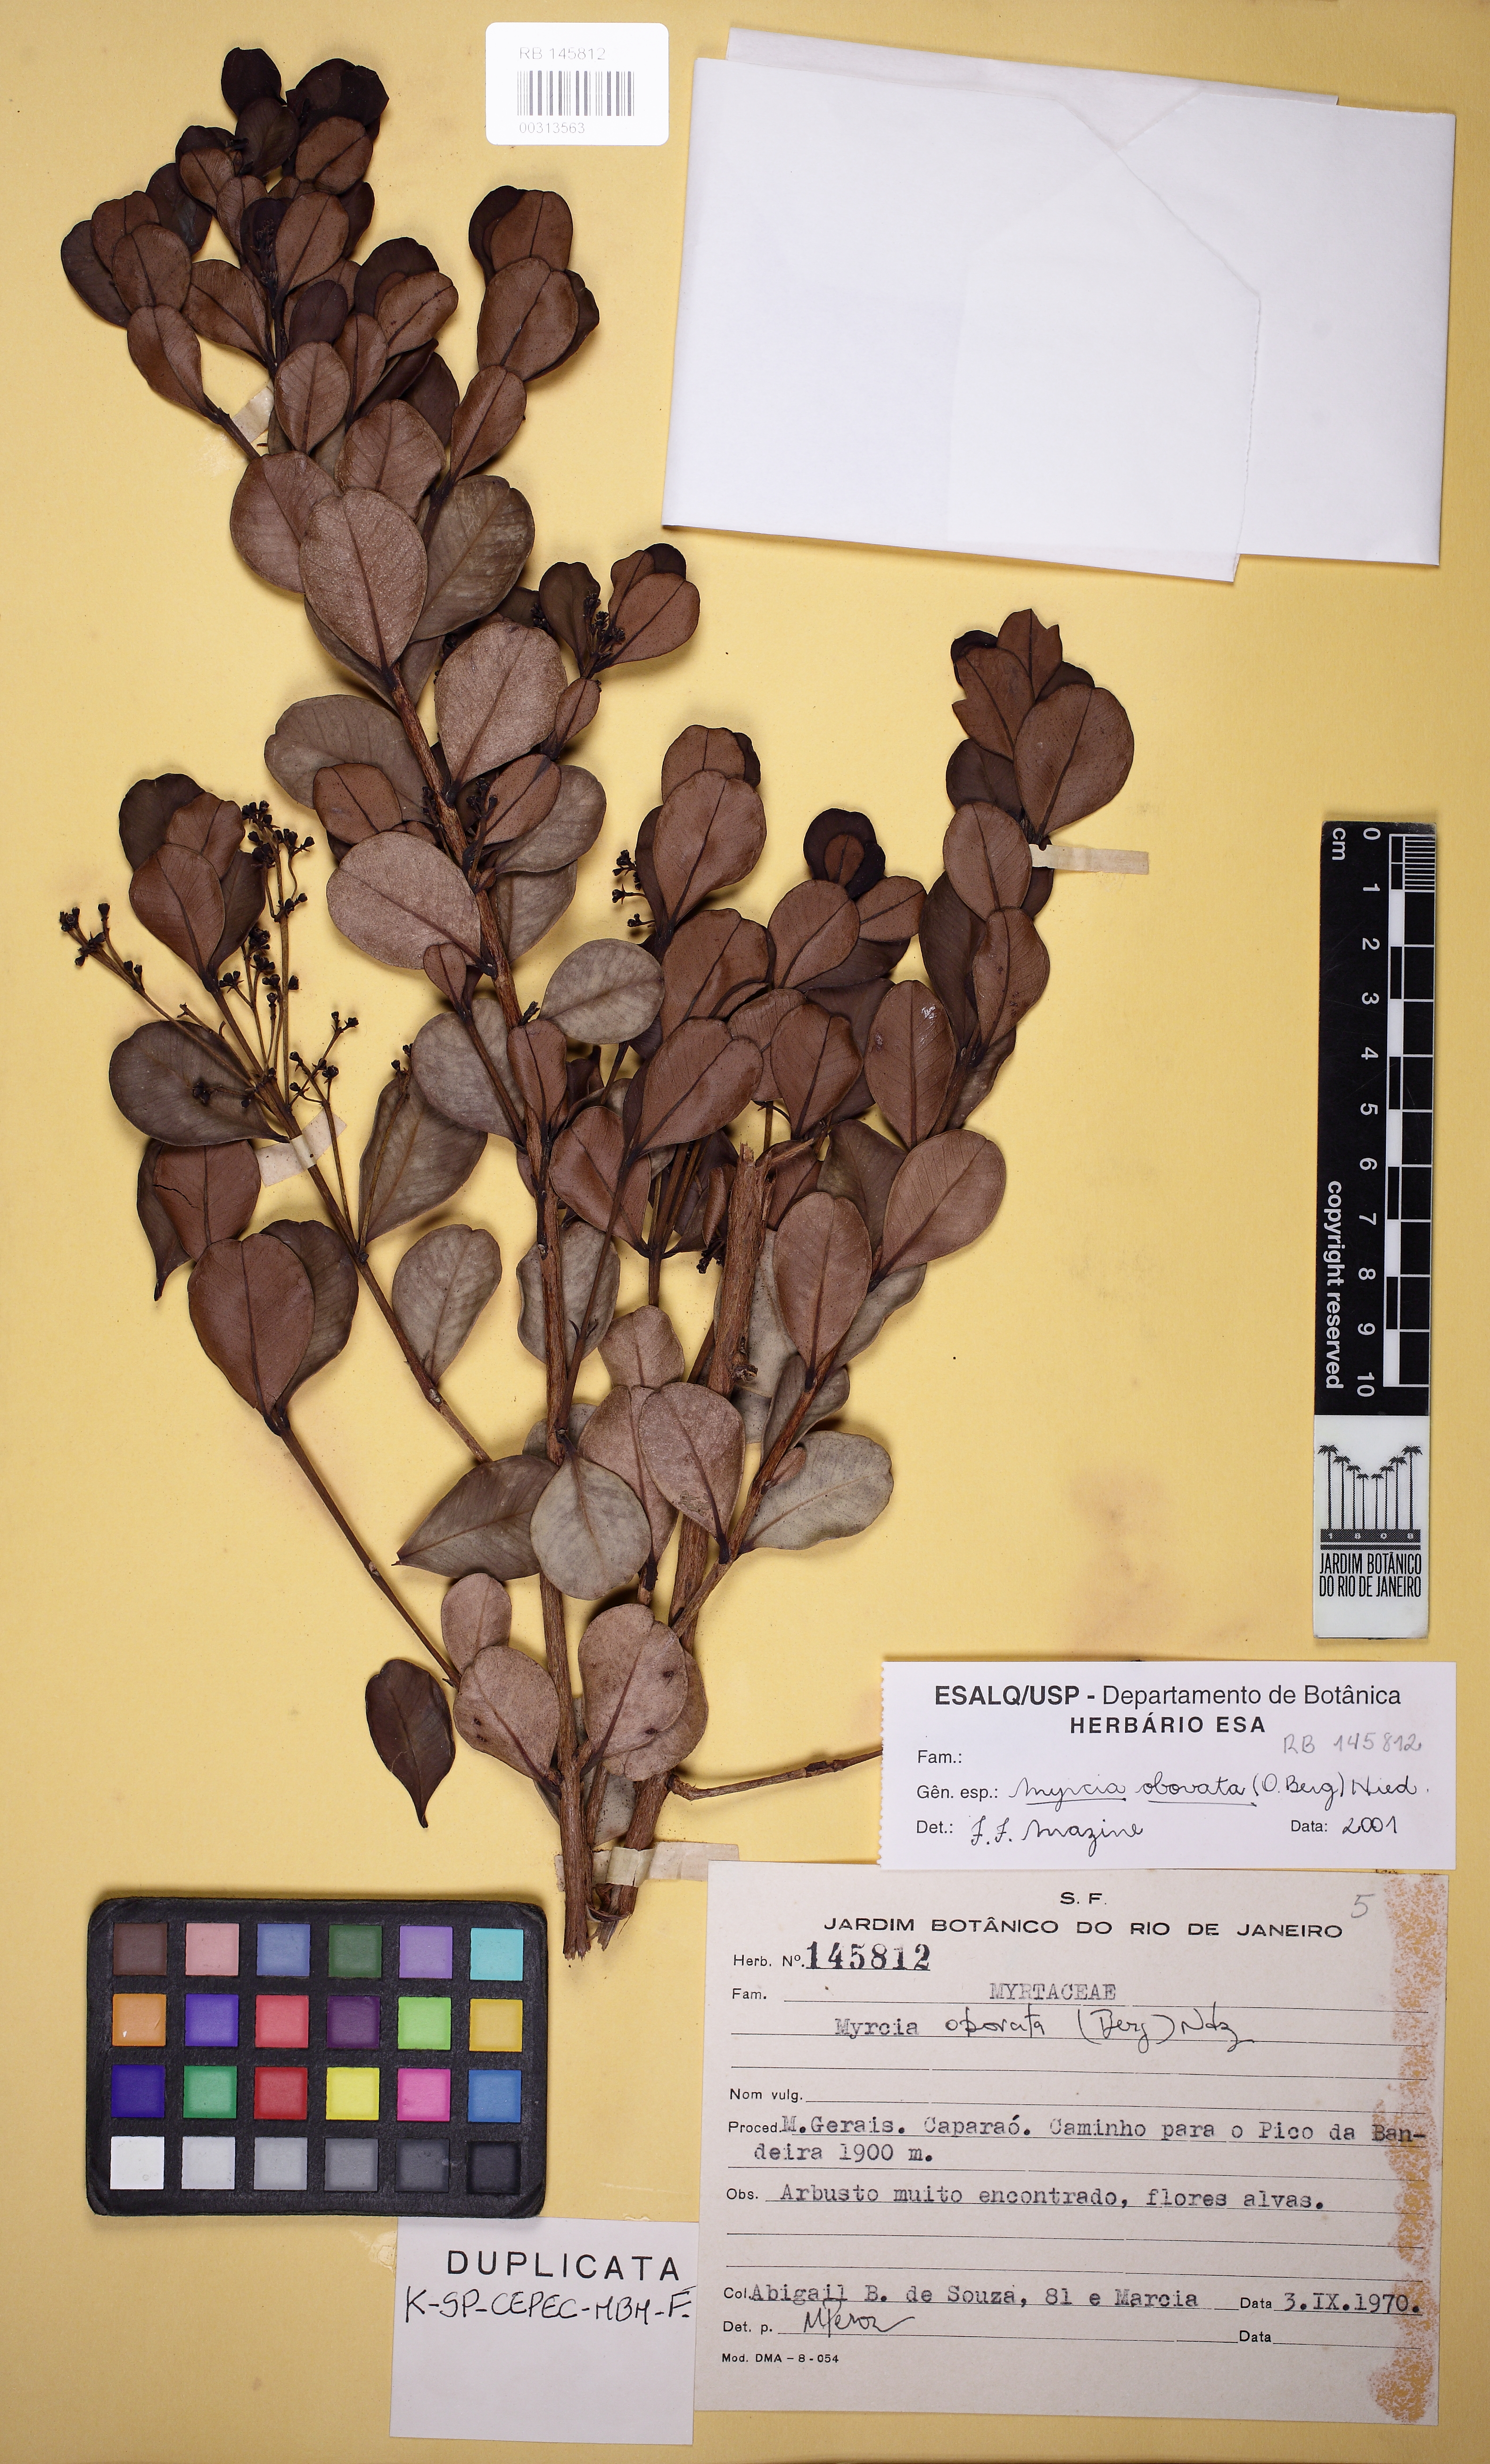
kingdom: Plantae
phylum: Tracheophyta
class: Magnoliopsida
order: Myrtales
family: Myrtaceae
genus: Myrcia
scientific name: Myrcia obovata
